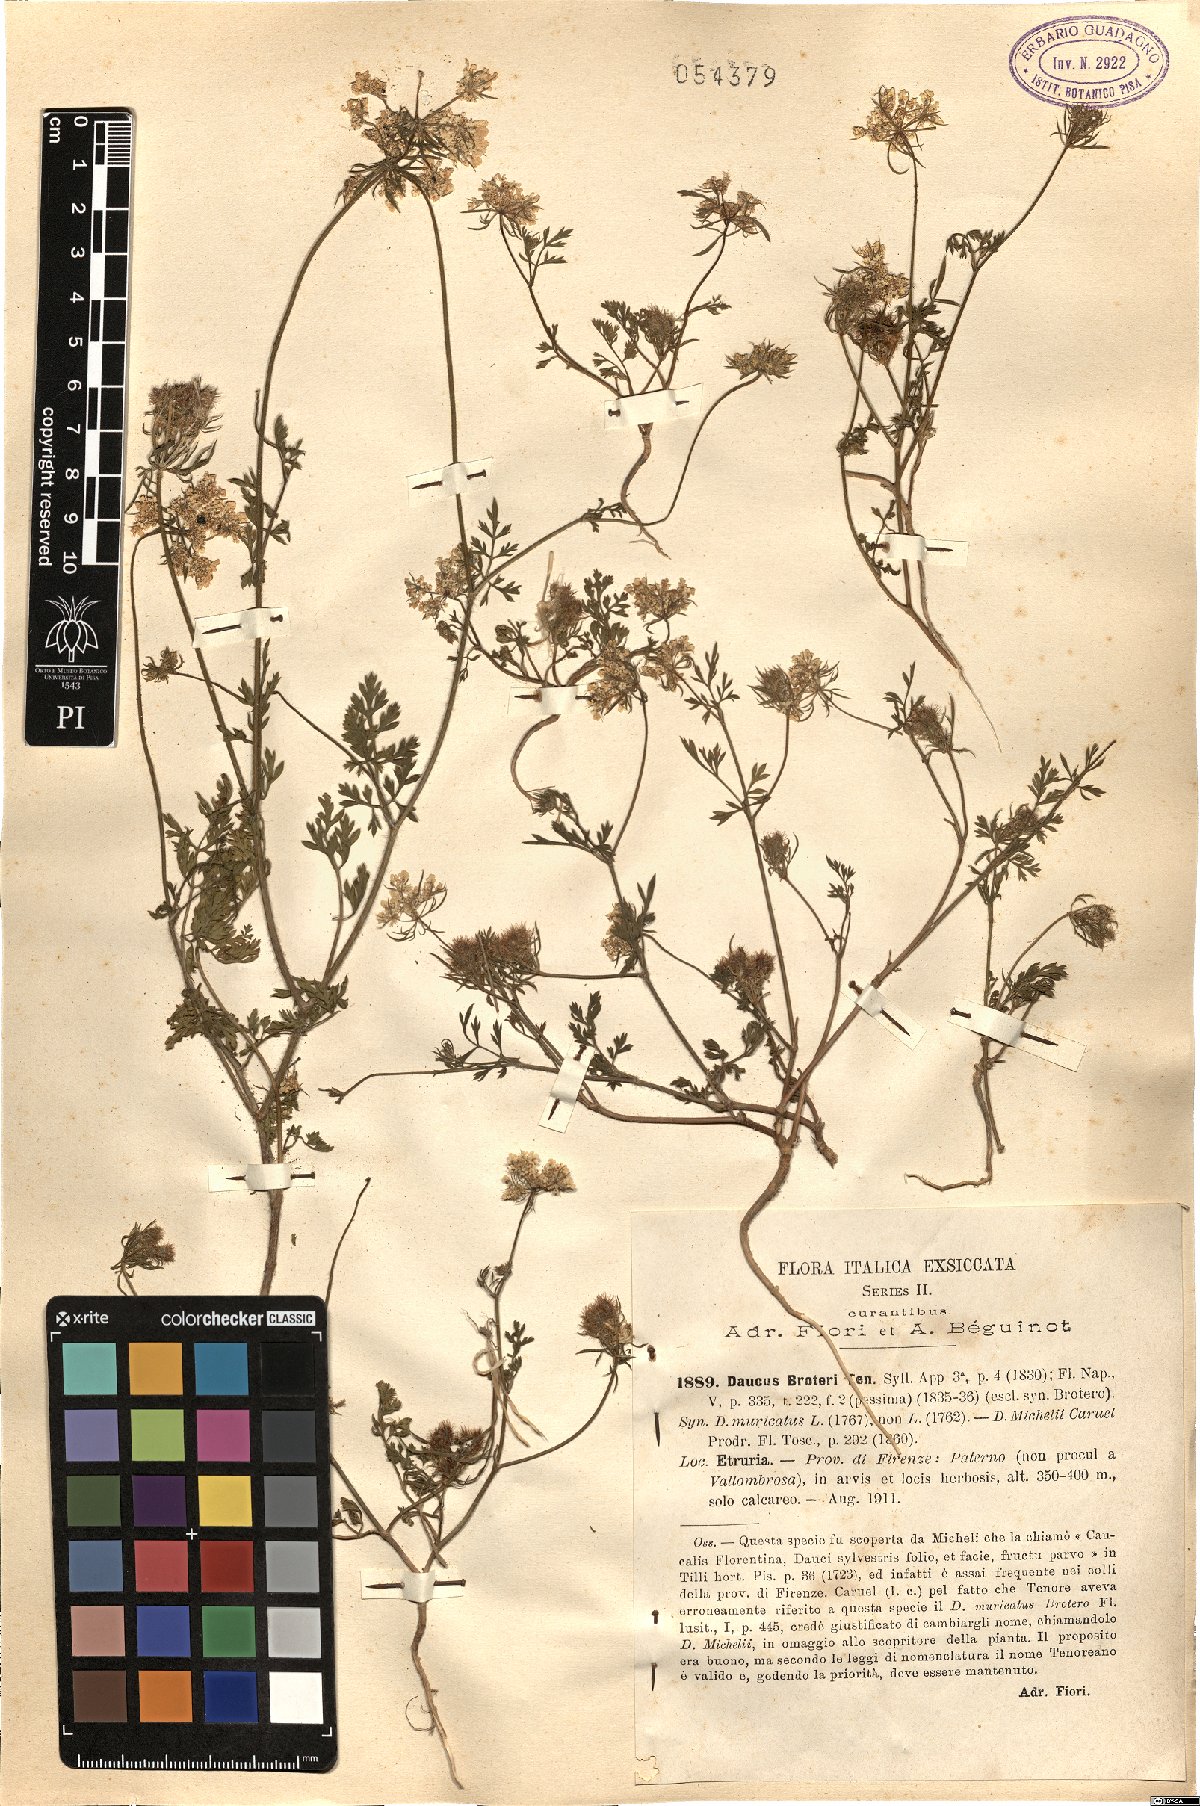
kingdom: Plantae
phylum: Tracheophyta
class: Magnoliopsida
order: Apiales
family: Apiaceae
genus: Daucus
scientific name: Daucus broteroi
